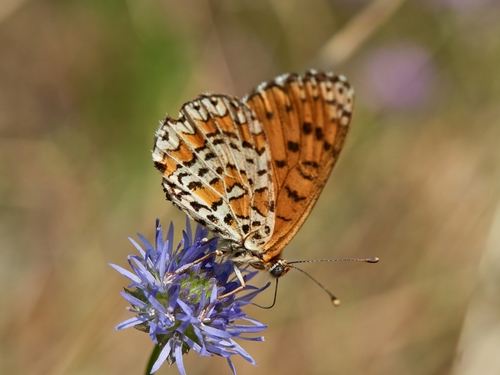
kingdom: Animalia
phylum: Arthropoda
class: Insecta
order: Lepidoptera
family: Nymphalidae
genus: Melitaea
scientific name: Melitaea trivia
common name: Lesser spotted fritillary
